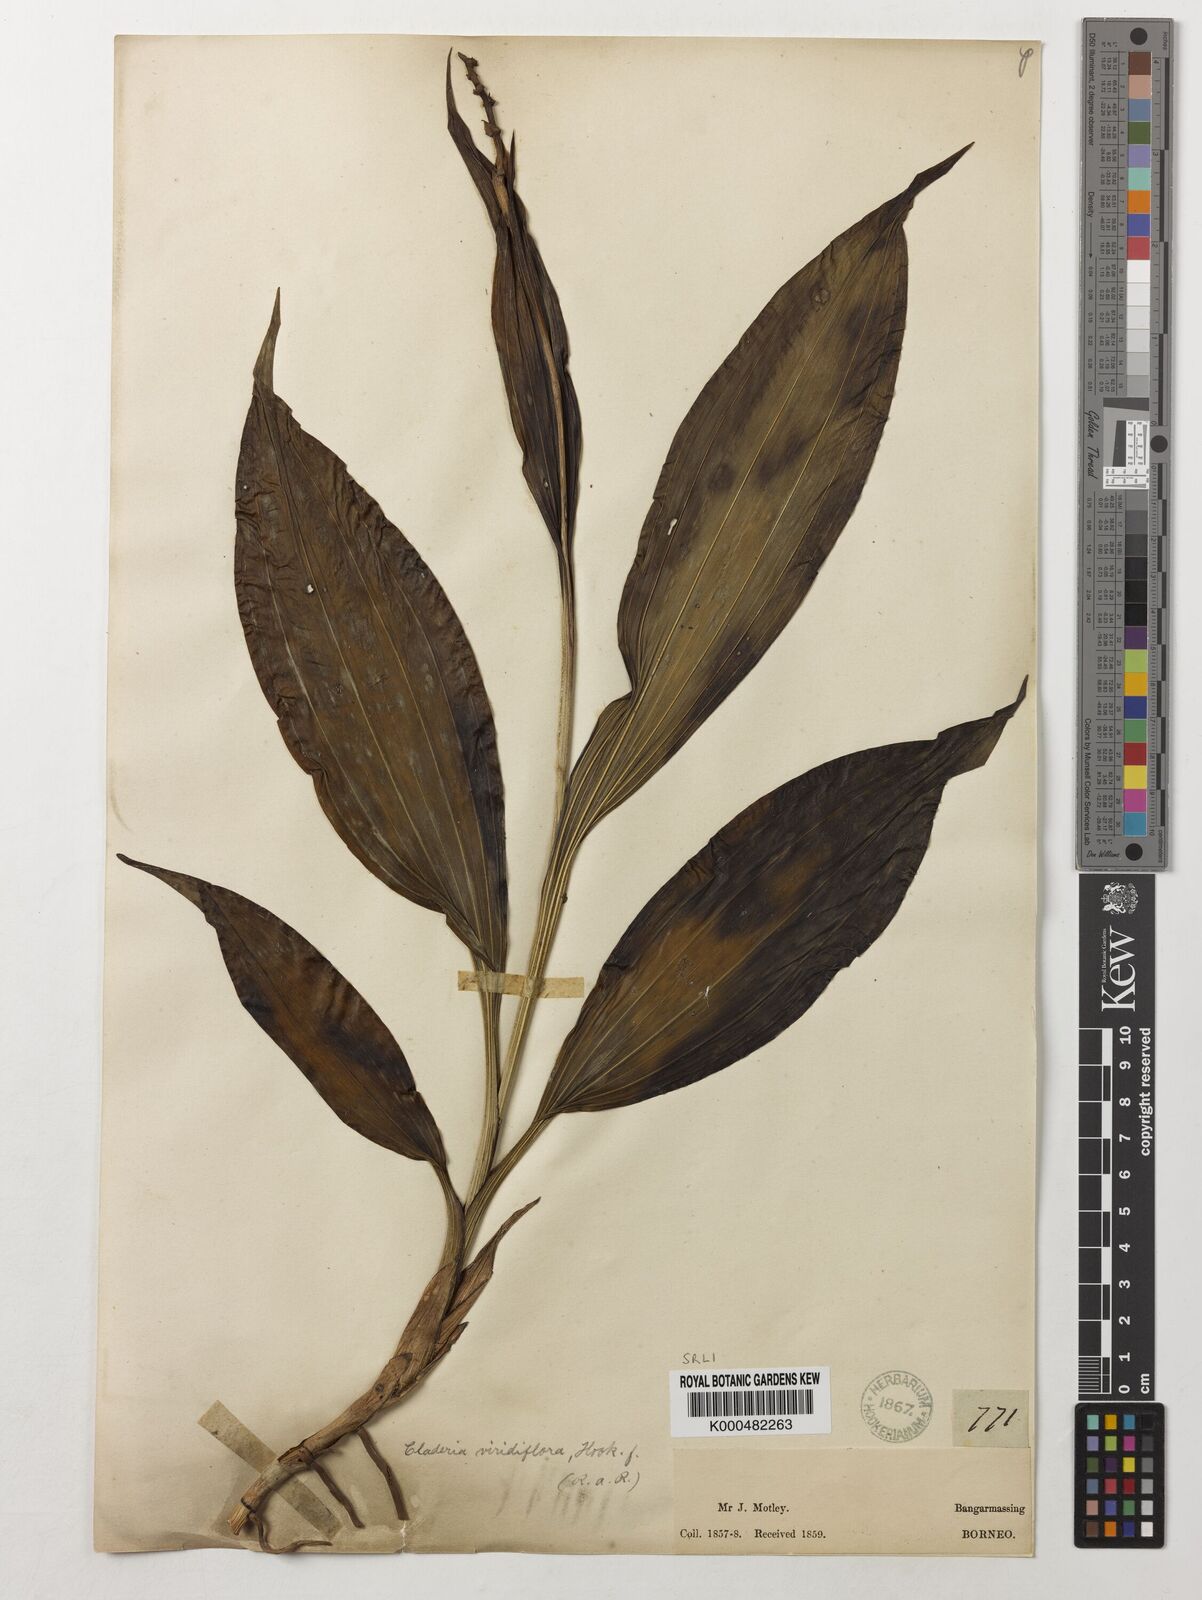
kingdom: Plantae
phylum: Tracheophyta
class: Liliopsida
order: Asparagales
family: Orchidaceae
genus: Claderia
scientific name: Claderia
